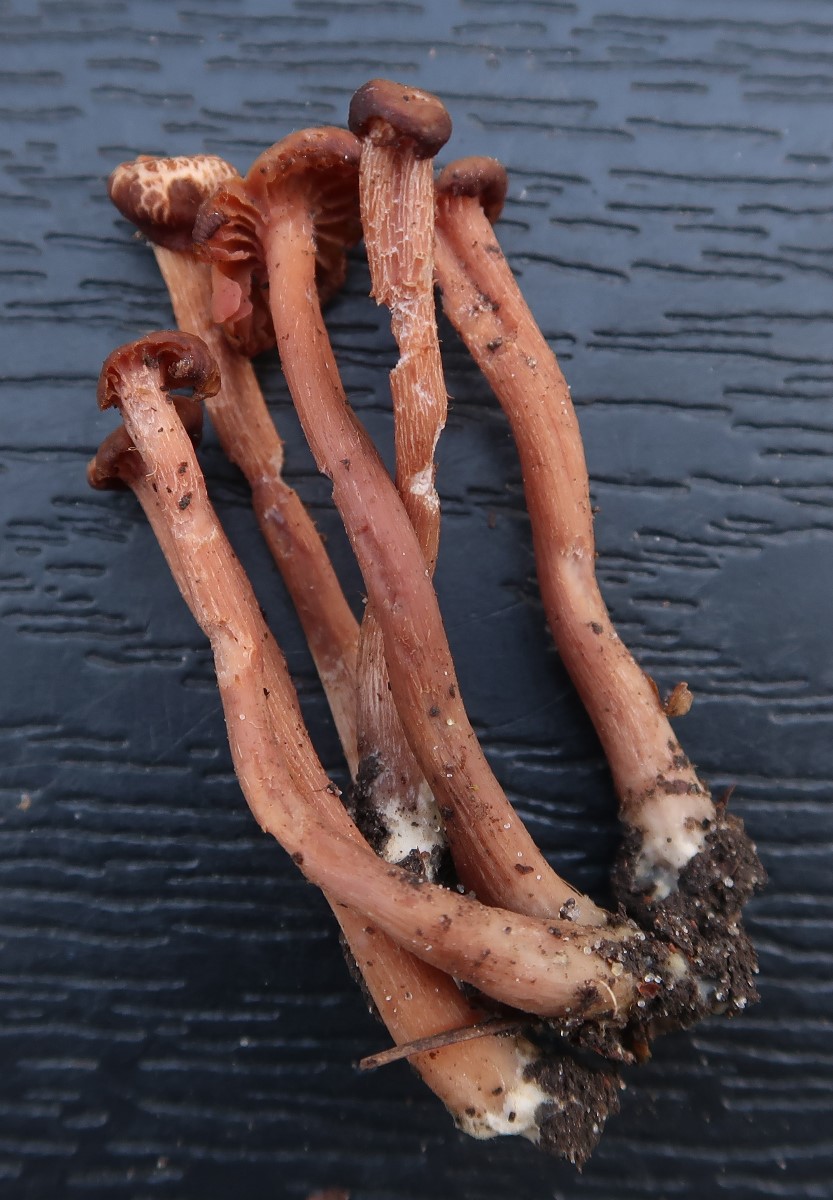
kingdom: Fungi
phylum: Basidiomycota
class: Agaricomycetes
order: Agaricales
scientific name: Agaricales
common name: champignonordenen
